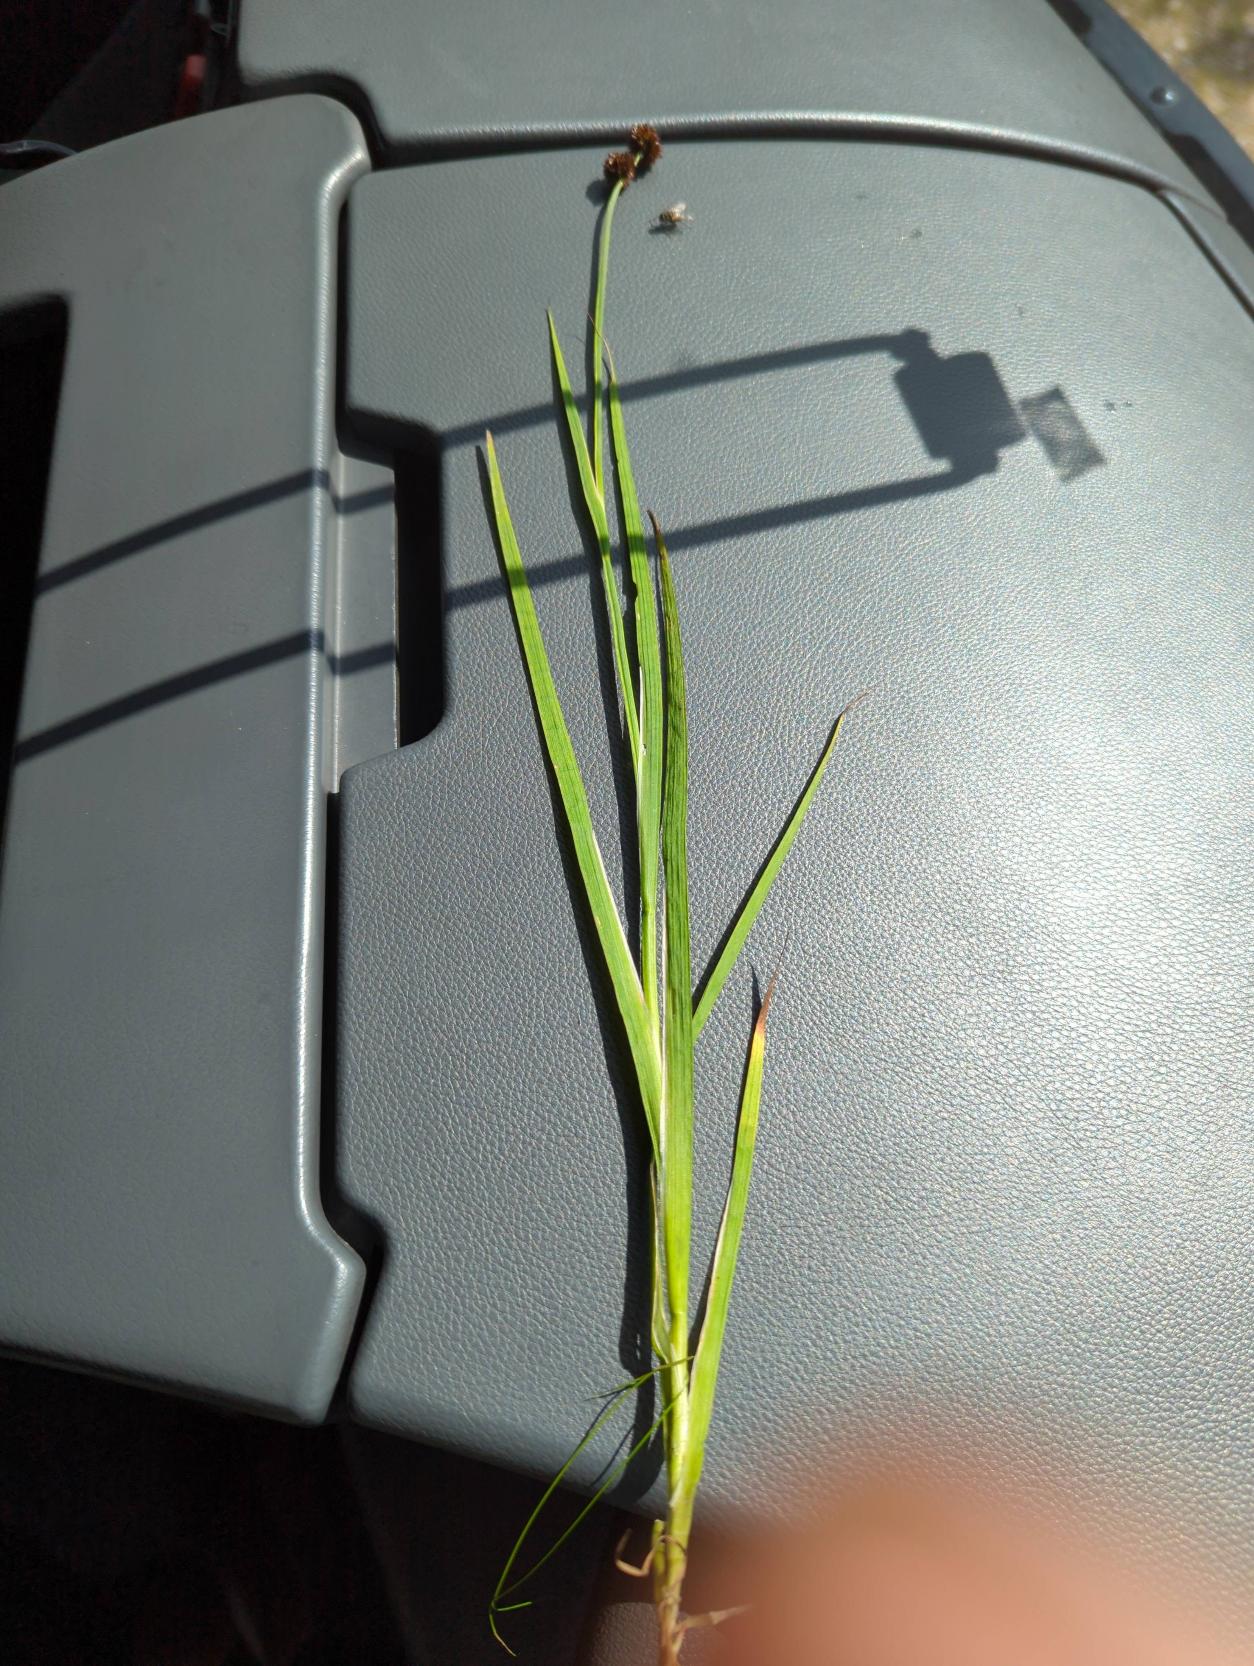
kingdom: Plantae
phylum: Tracheophyta
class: Liliopsida
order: Poales
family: Juncaceae
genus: Juncus
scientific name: Juncus ensifolius
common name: Sværd-siv
